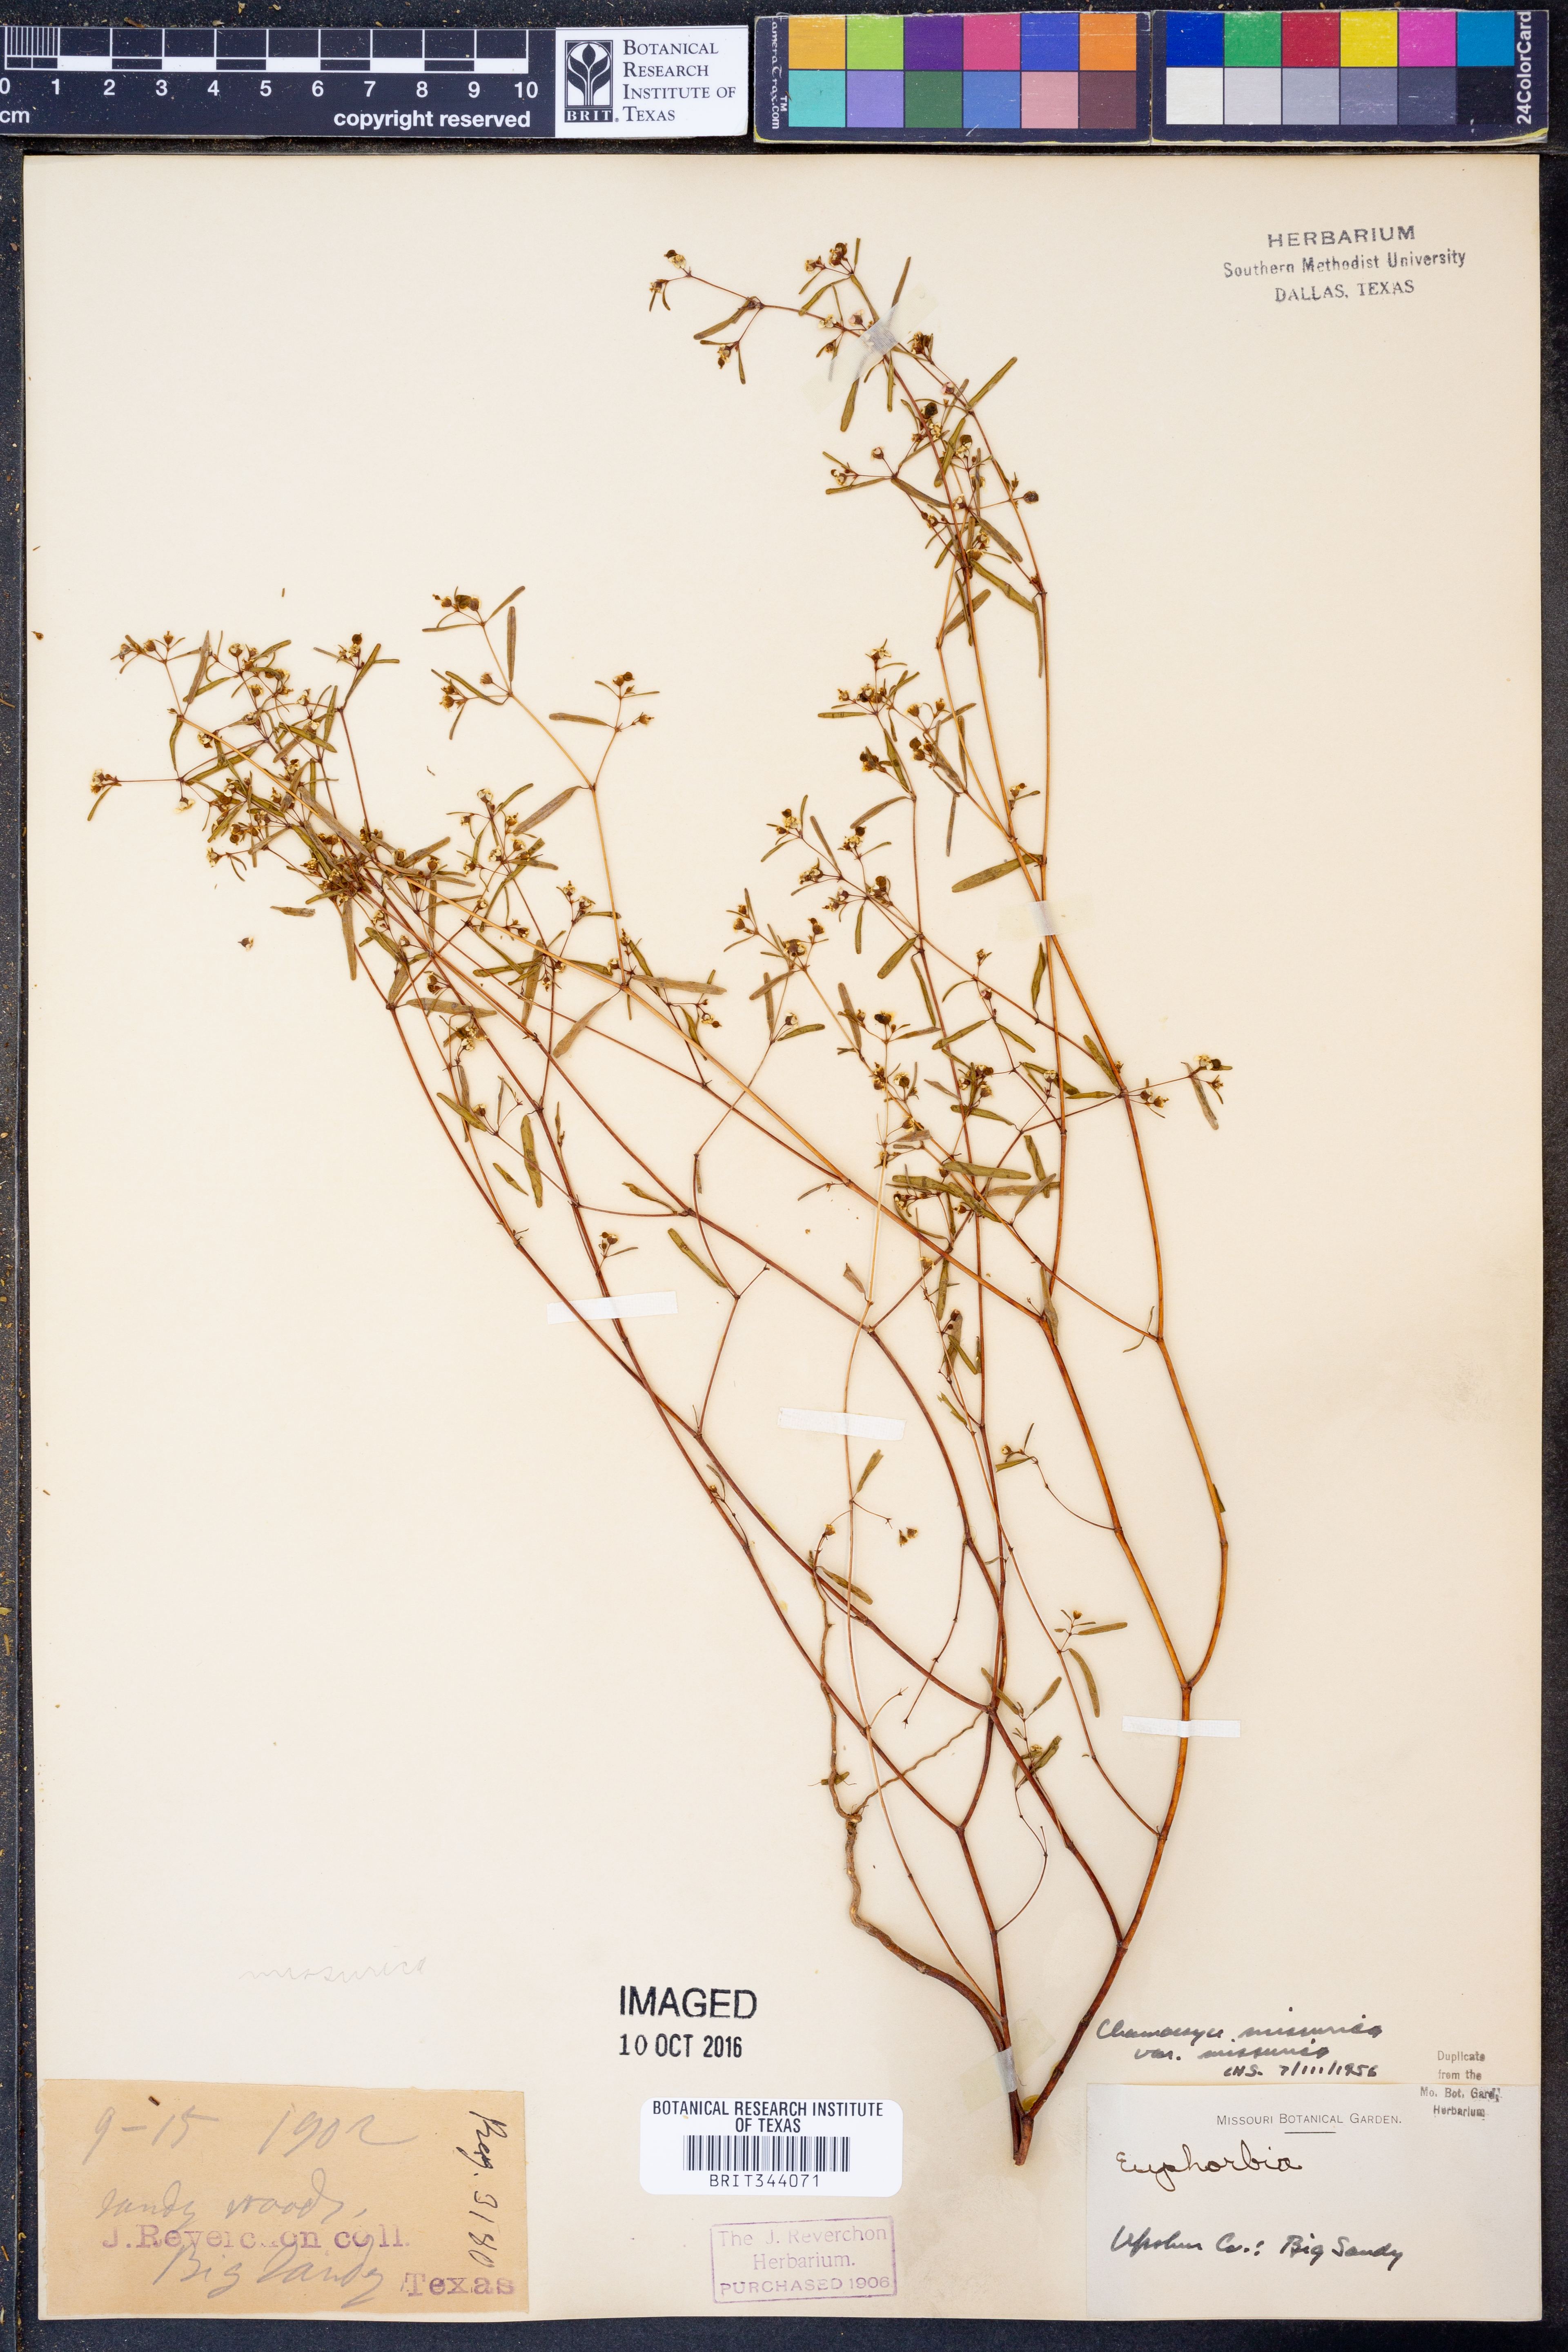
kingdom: Plantae
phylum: Tracheophyta
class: Magnoliopsida
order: Malpighiales
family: Euphorbiaceae
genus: Euphorbia
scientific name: Euphorbia missurica
